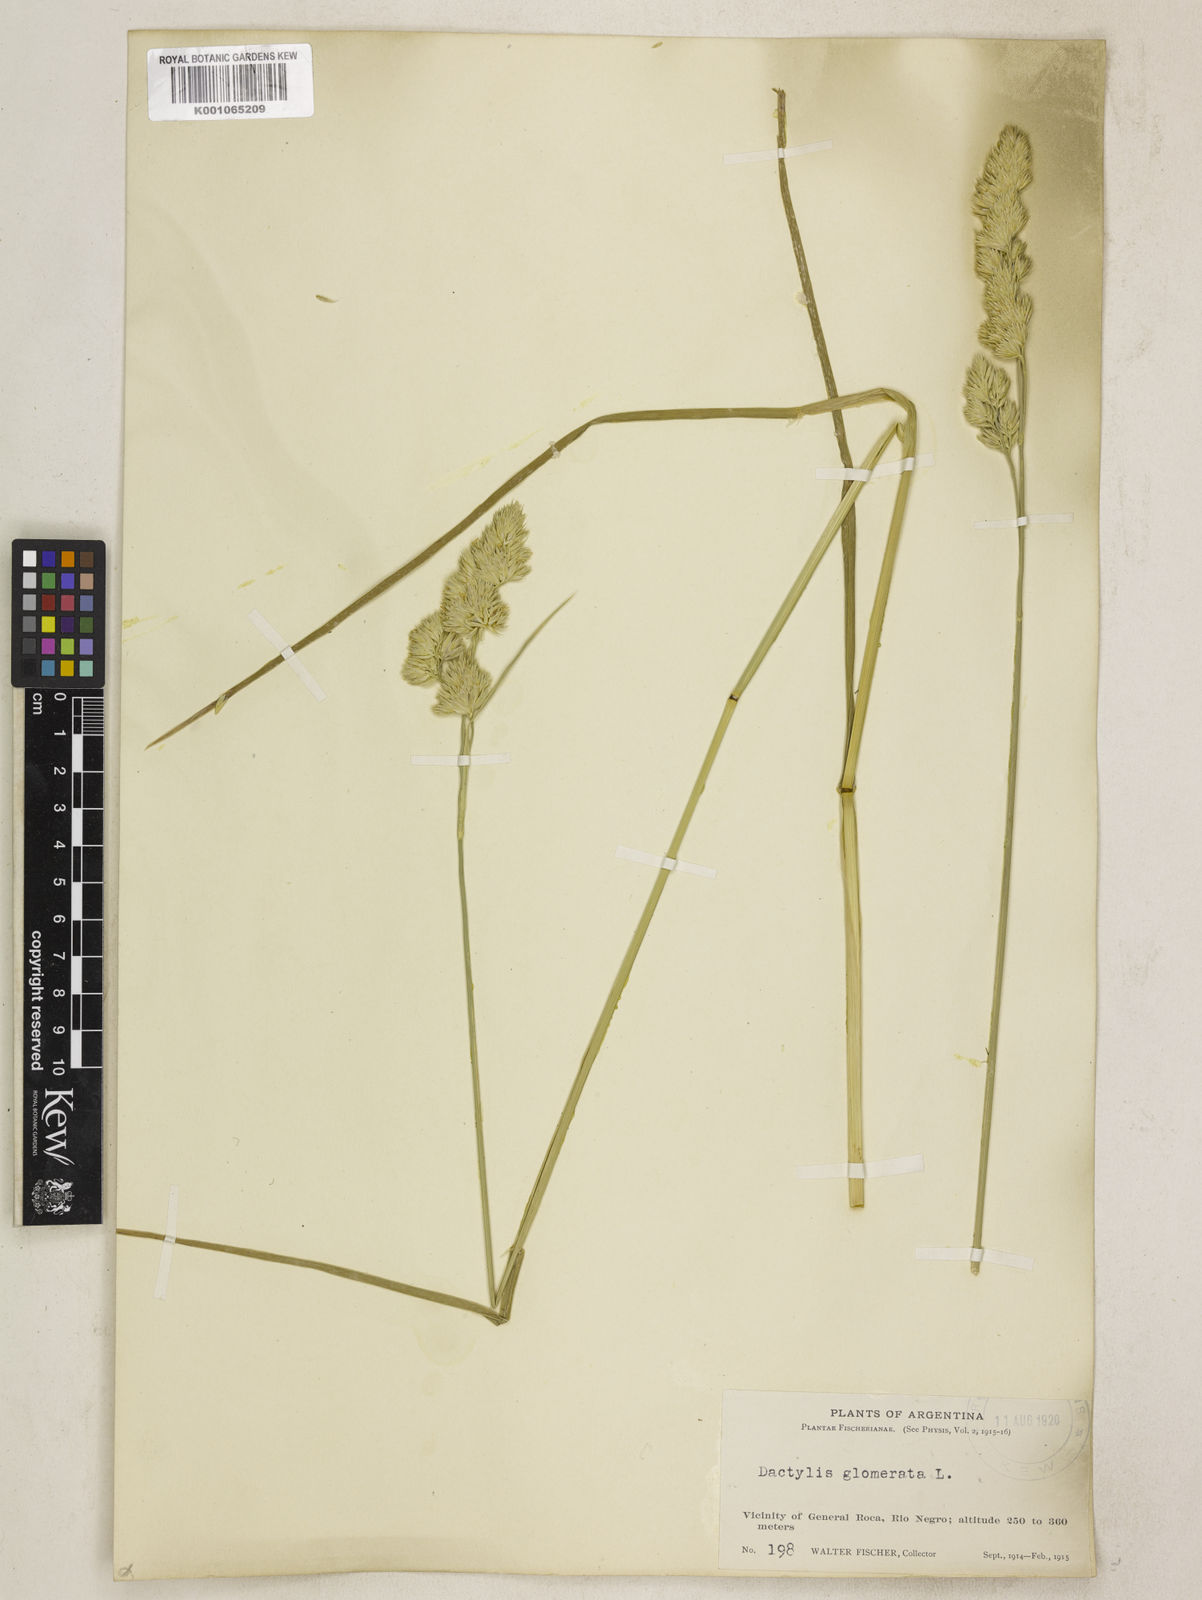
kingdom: Plantae
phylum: Tracheophyta
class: Liliopsida
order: Poales
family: Poaceae
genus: Dactylis
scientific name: Dactylis glomerata
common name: Orchardgrass
